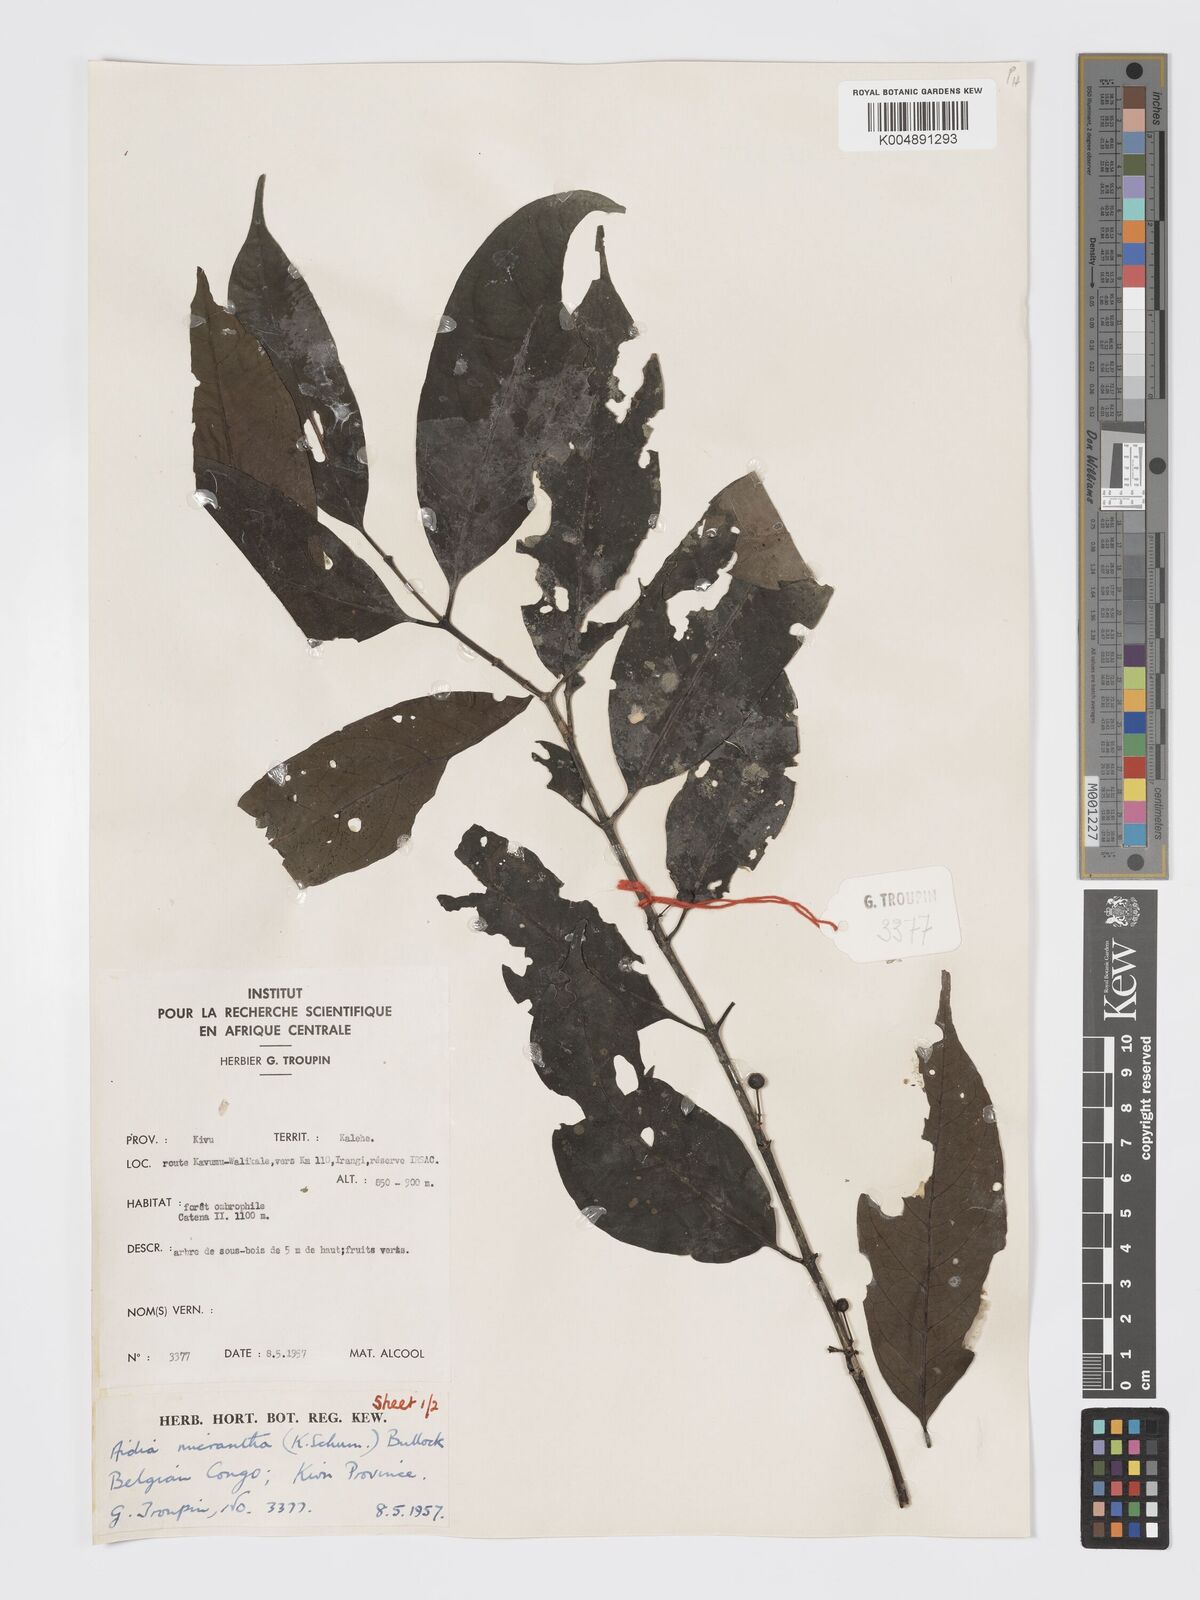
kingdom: Plantae
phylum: Tracheophyta
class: Magnoliopsida
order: Gentianales
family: Rubiaceae
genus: Aidia
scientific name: Aidia micrantha
